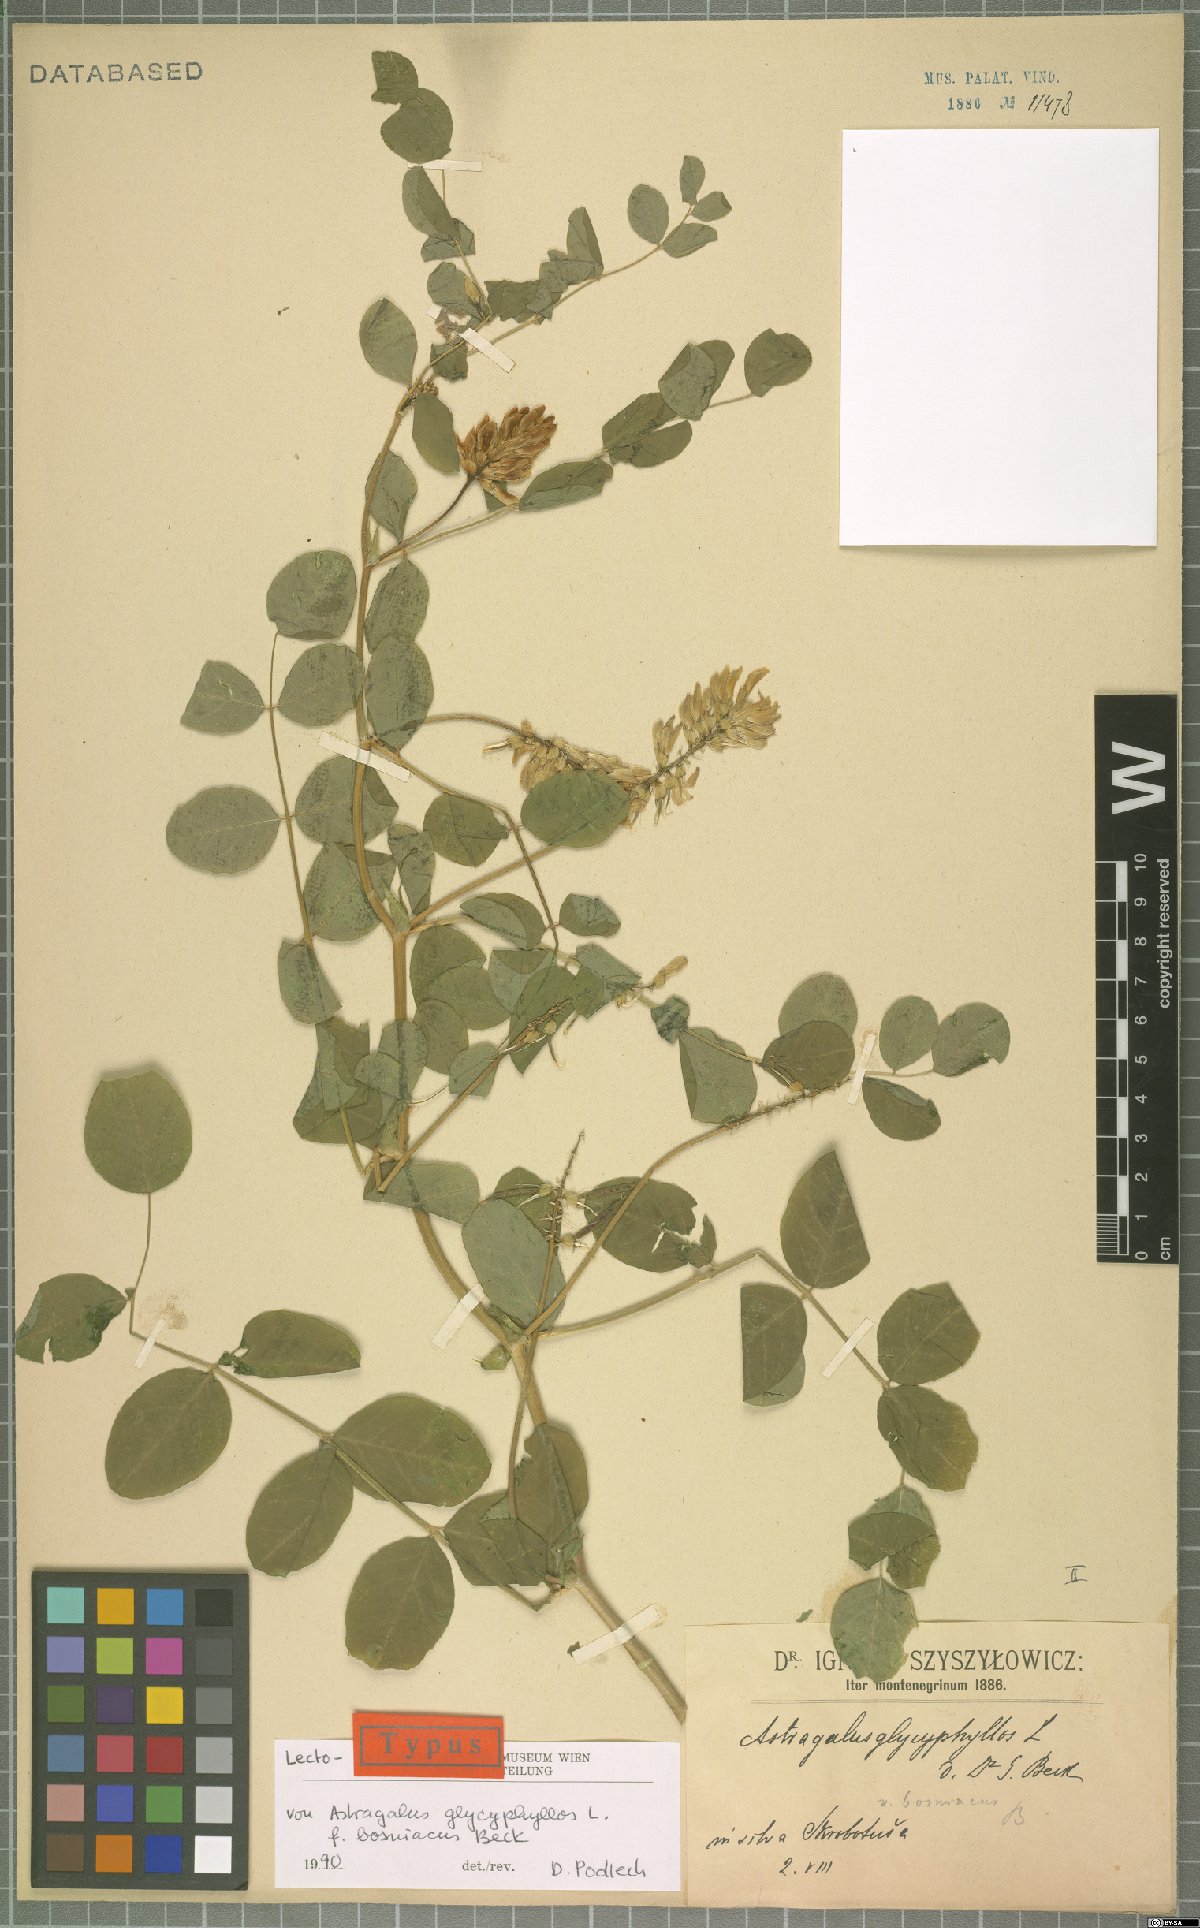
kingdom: Plantae
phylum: Tracheophyta
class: Magnoliopsida
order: Fabales
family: Fabaceae
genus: Astragalus
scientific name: Astragalus glycyphyllos
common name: Wild liquorice
